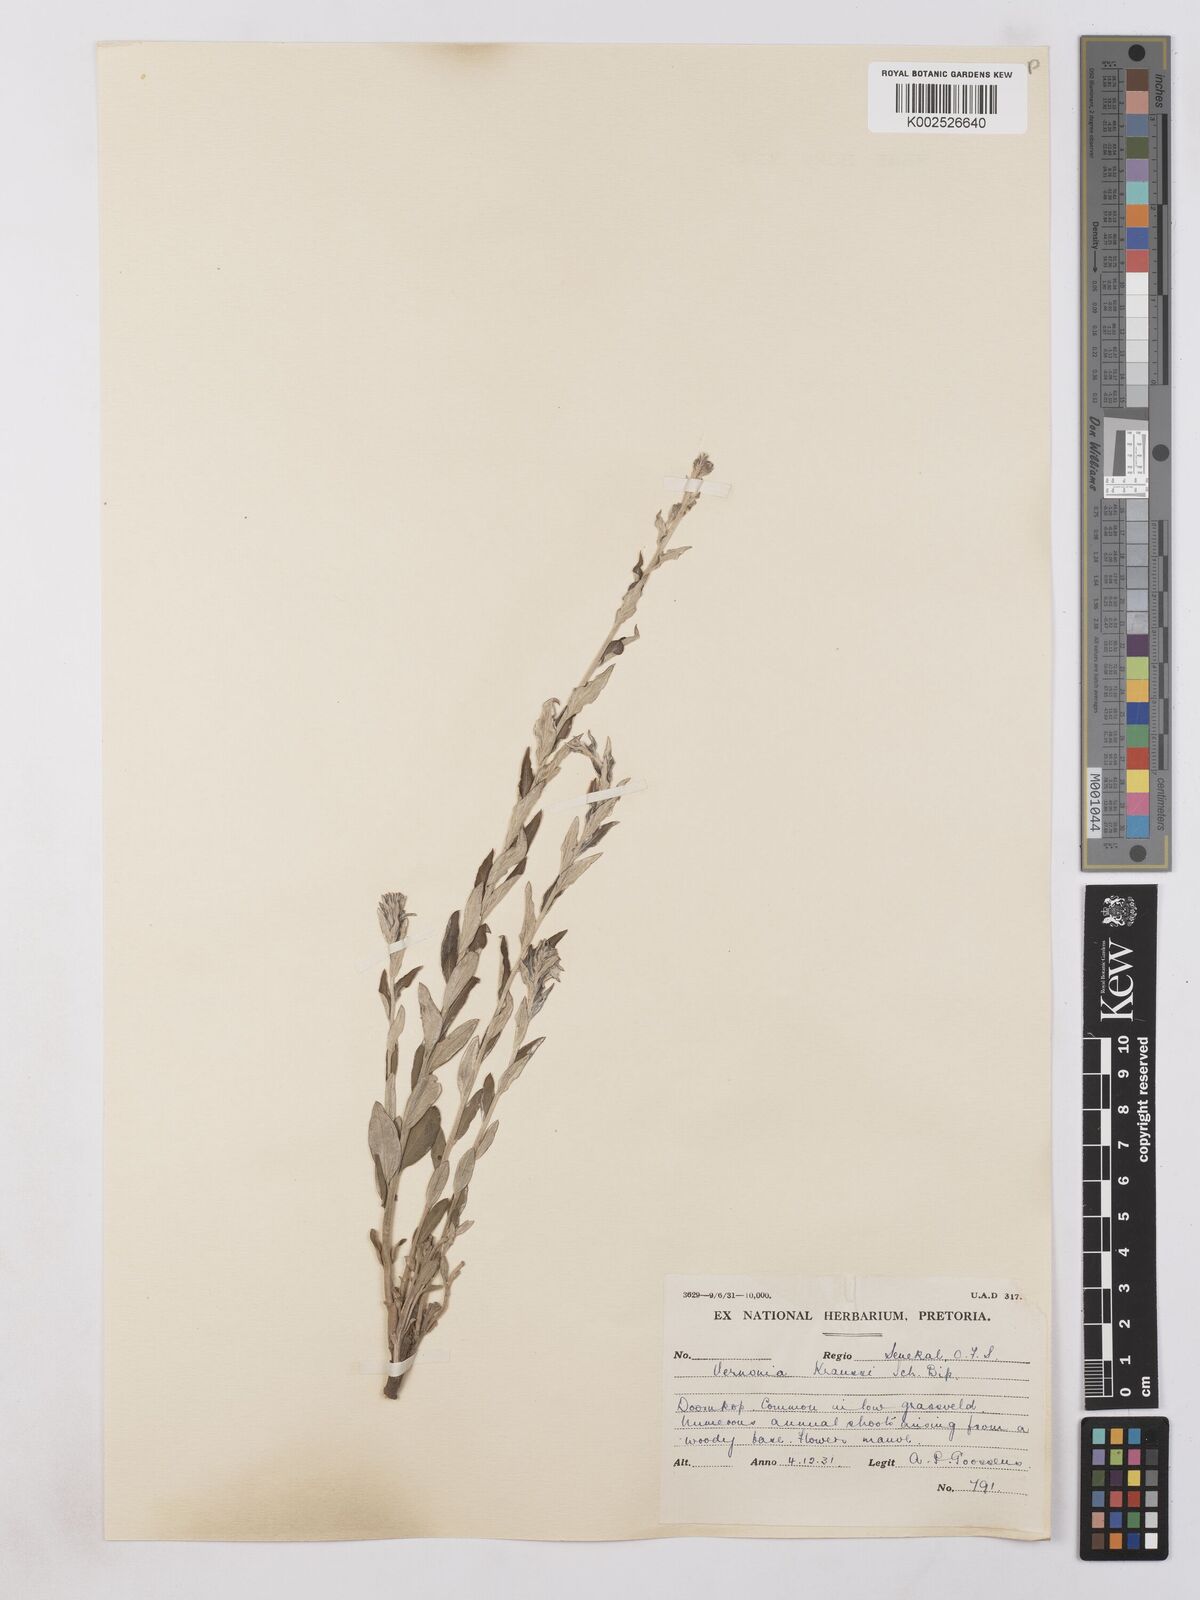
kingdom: Plantae
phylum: Tracheophyta
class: Magnoliopsida
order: Asterales
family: Asteraceae
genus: Hilliardiella
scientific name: Hilliardiella oligocephala
